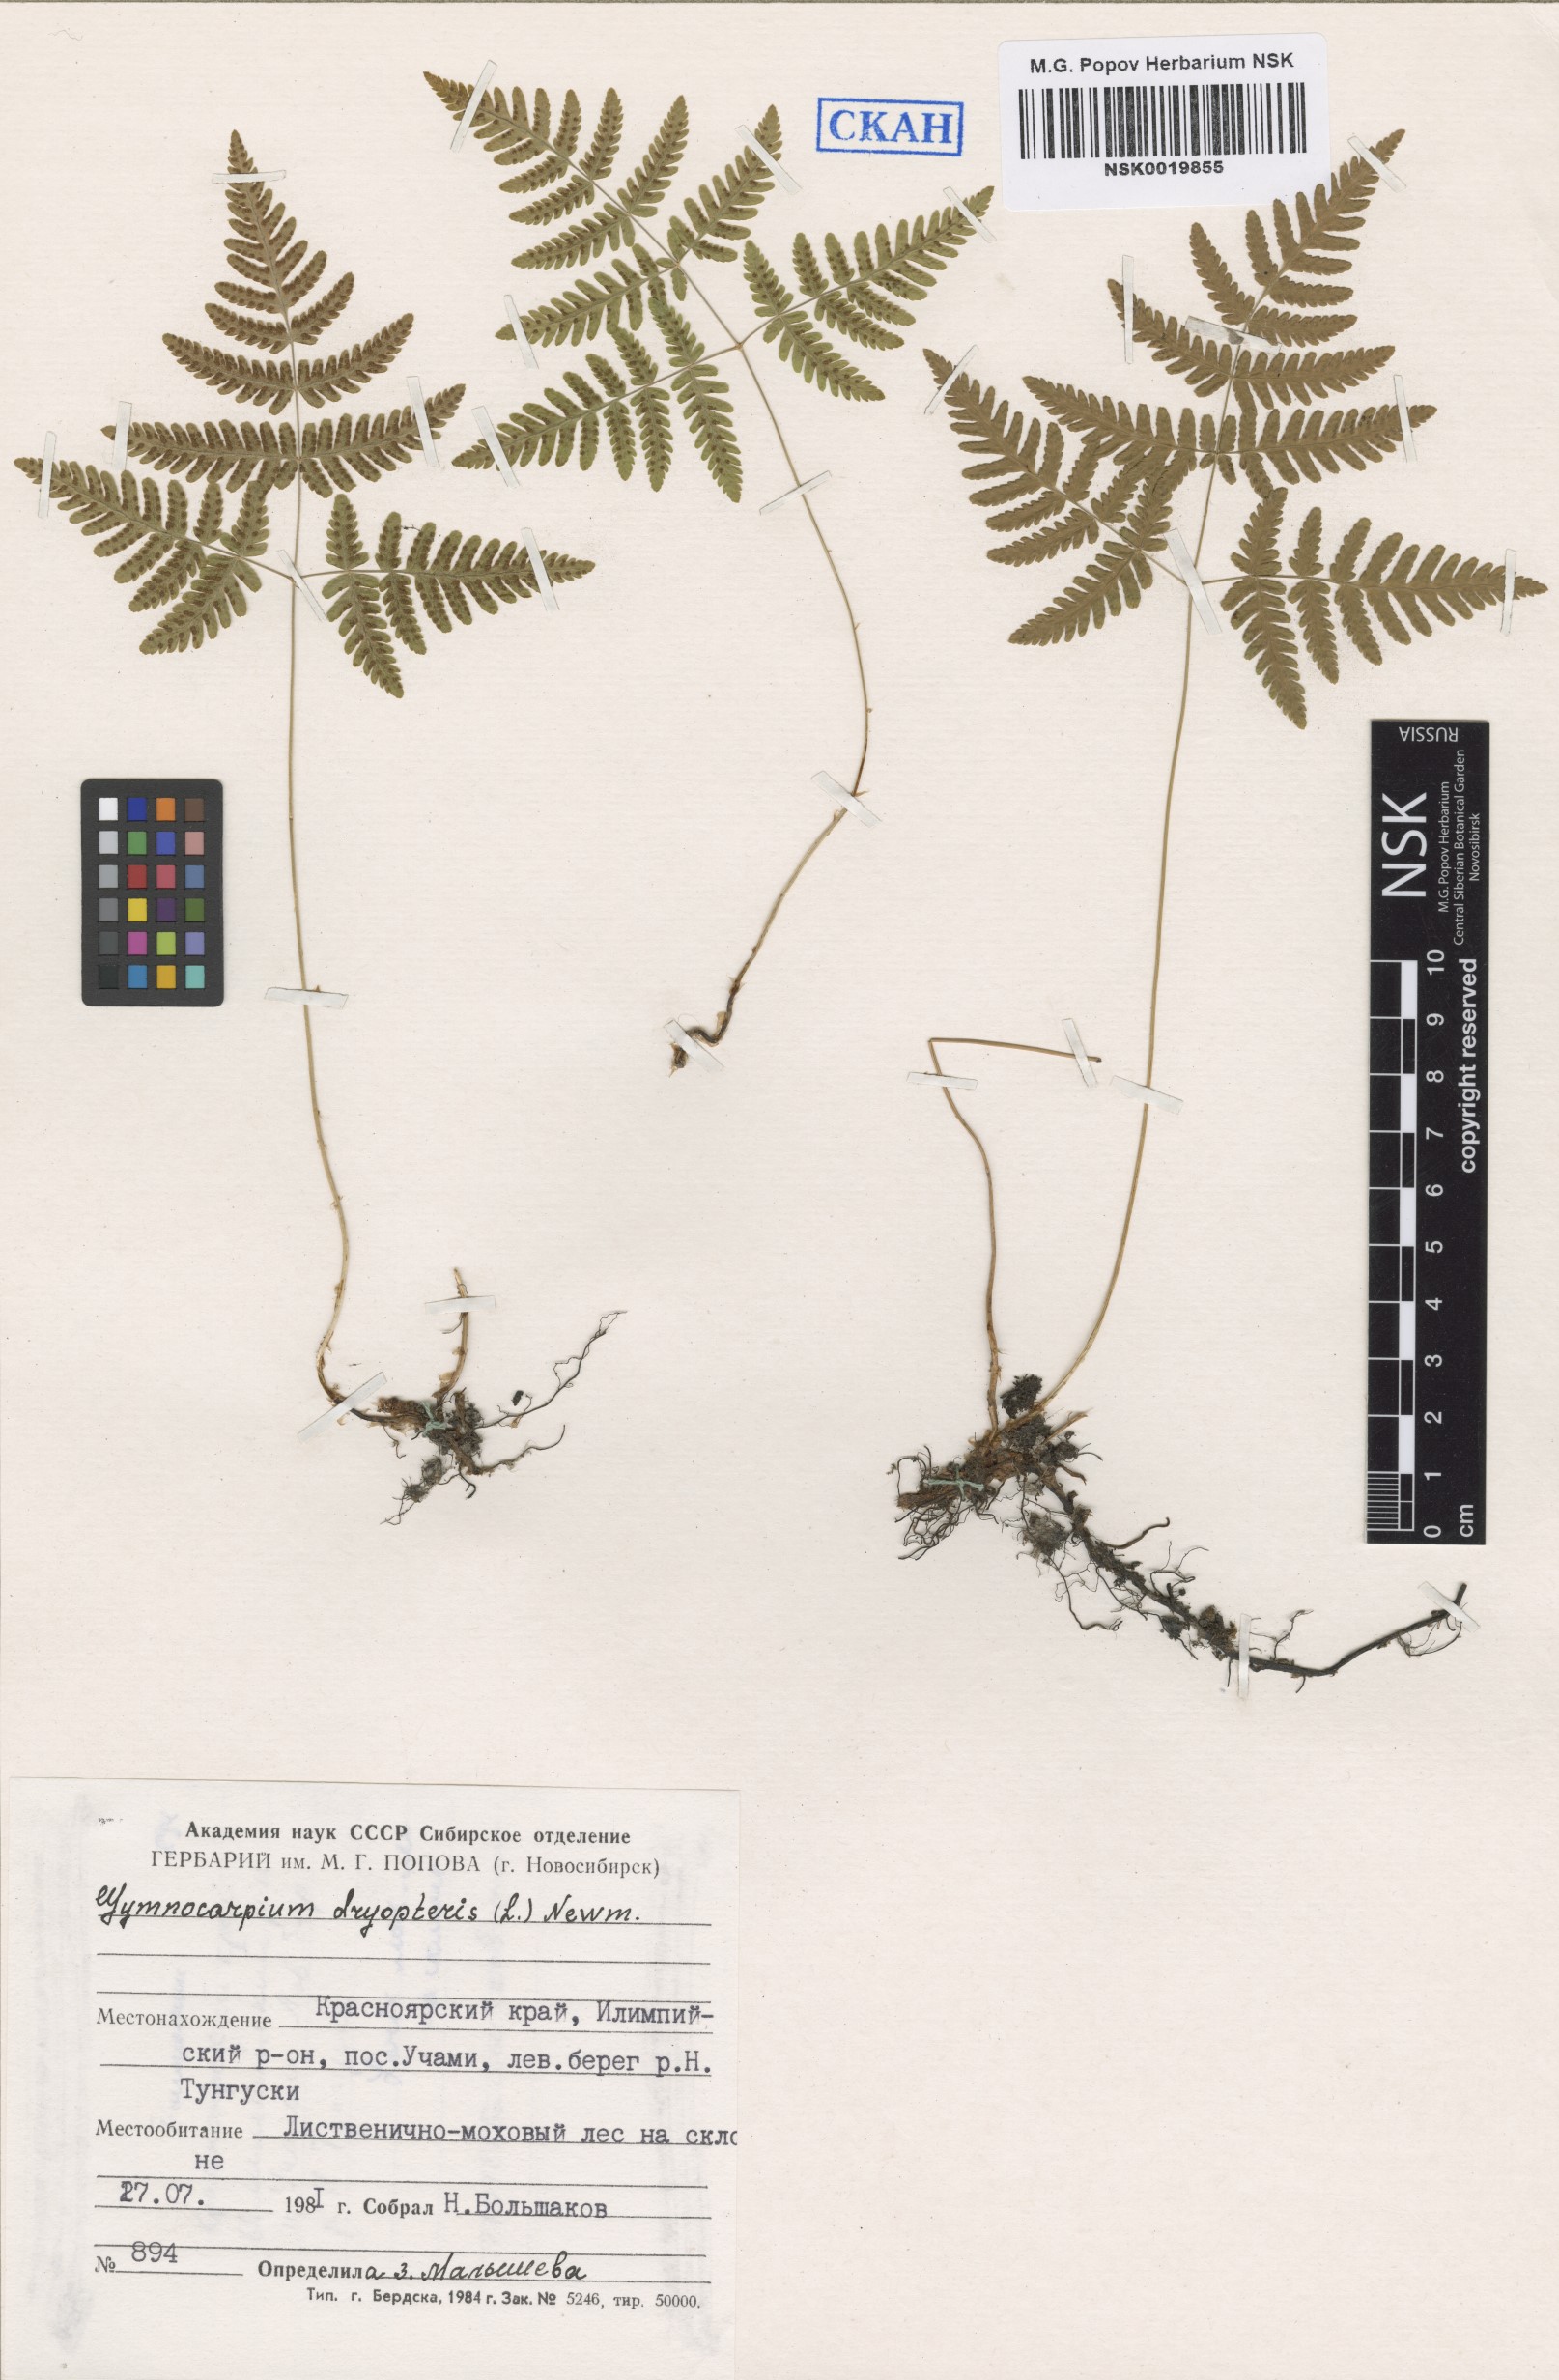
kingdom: Plantae
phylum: Tracheophyta
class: Polypodiopsida
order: Polypodiales
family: Cystopteridaceae
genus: Gymnocarpium
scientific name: Gymnocarpium dryopteris
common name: Oak fern
